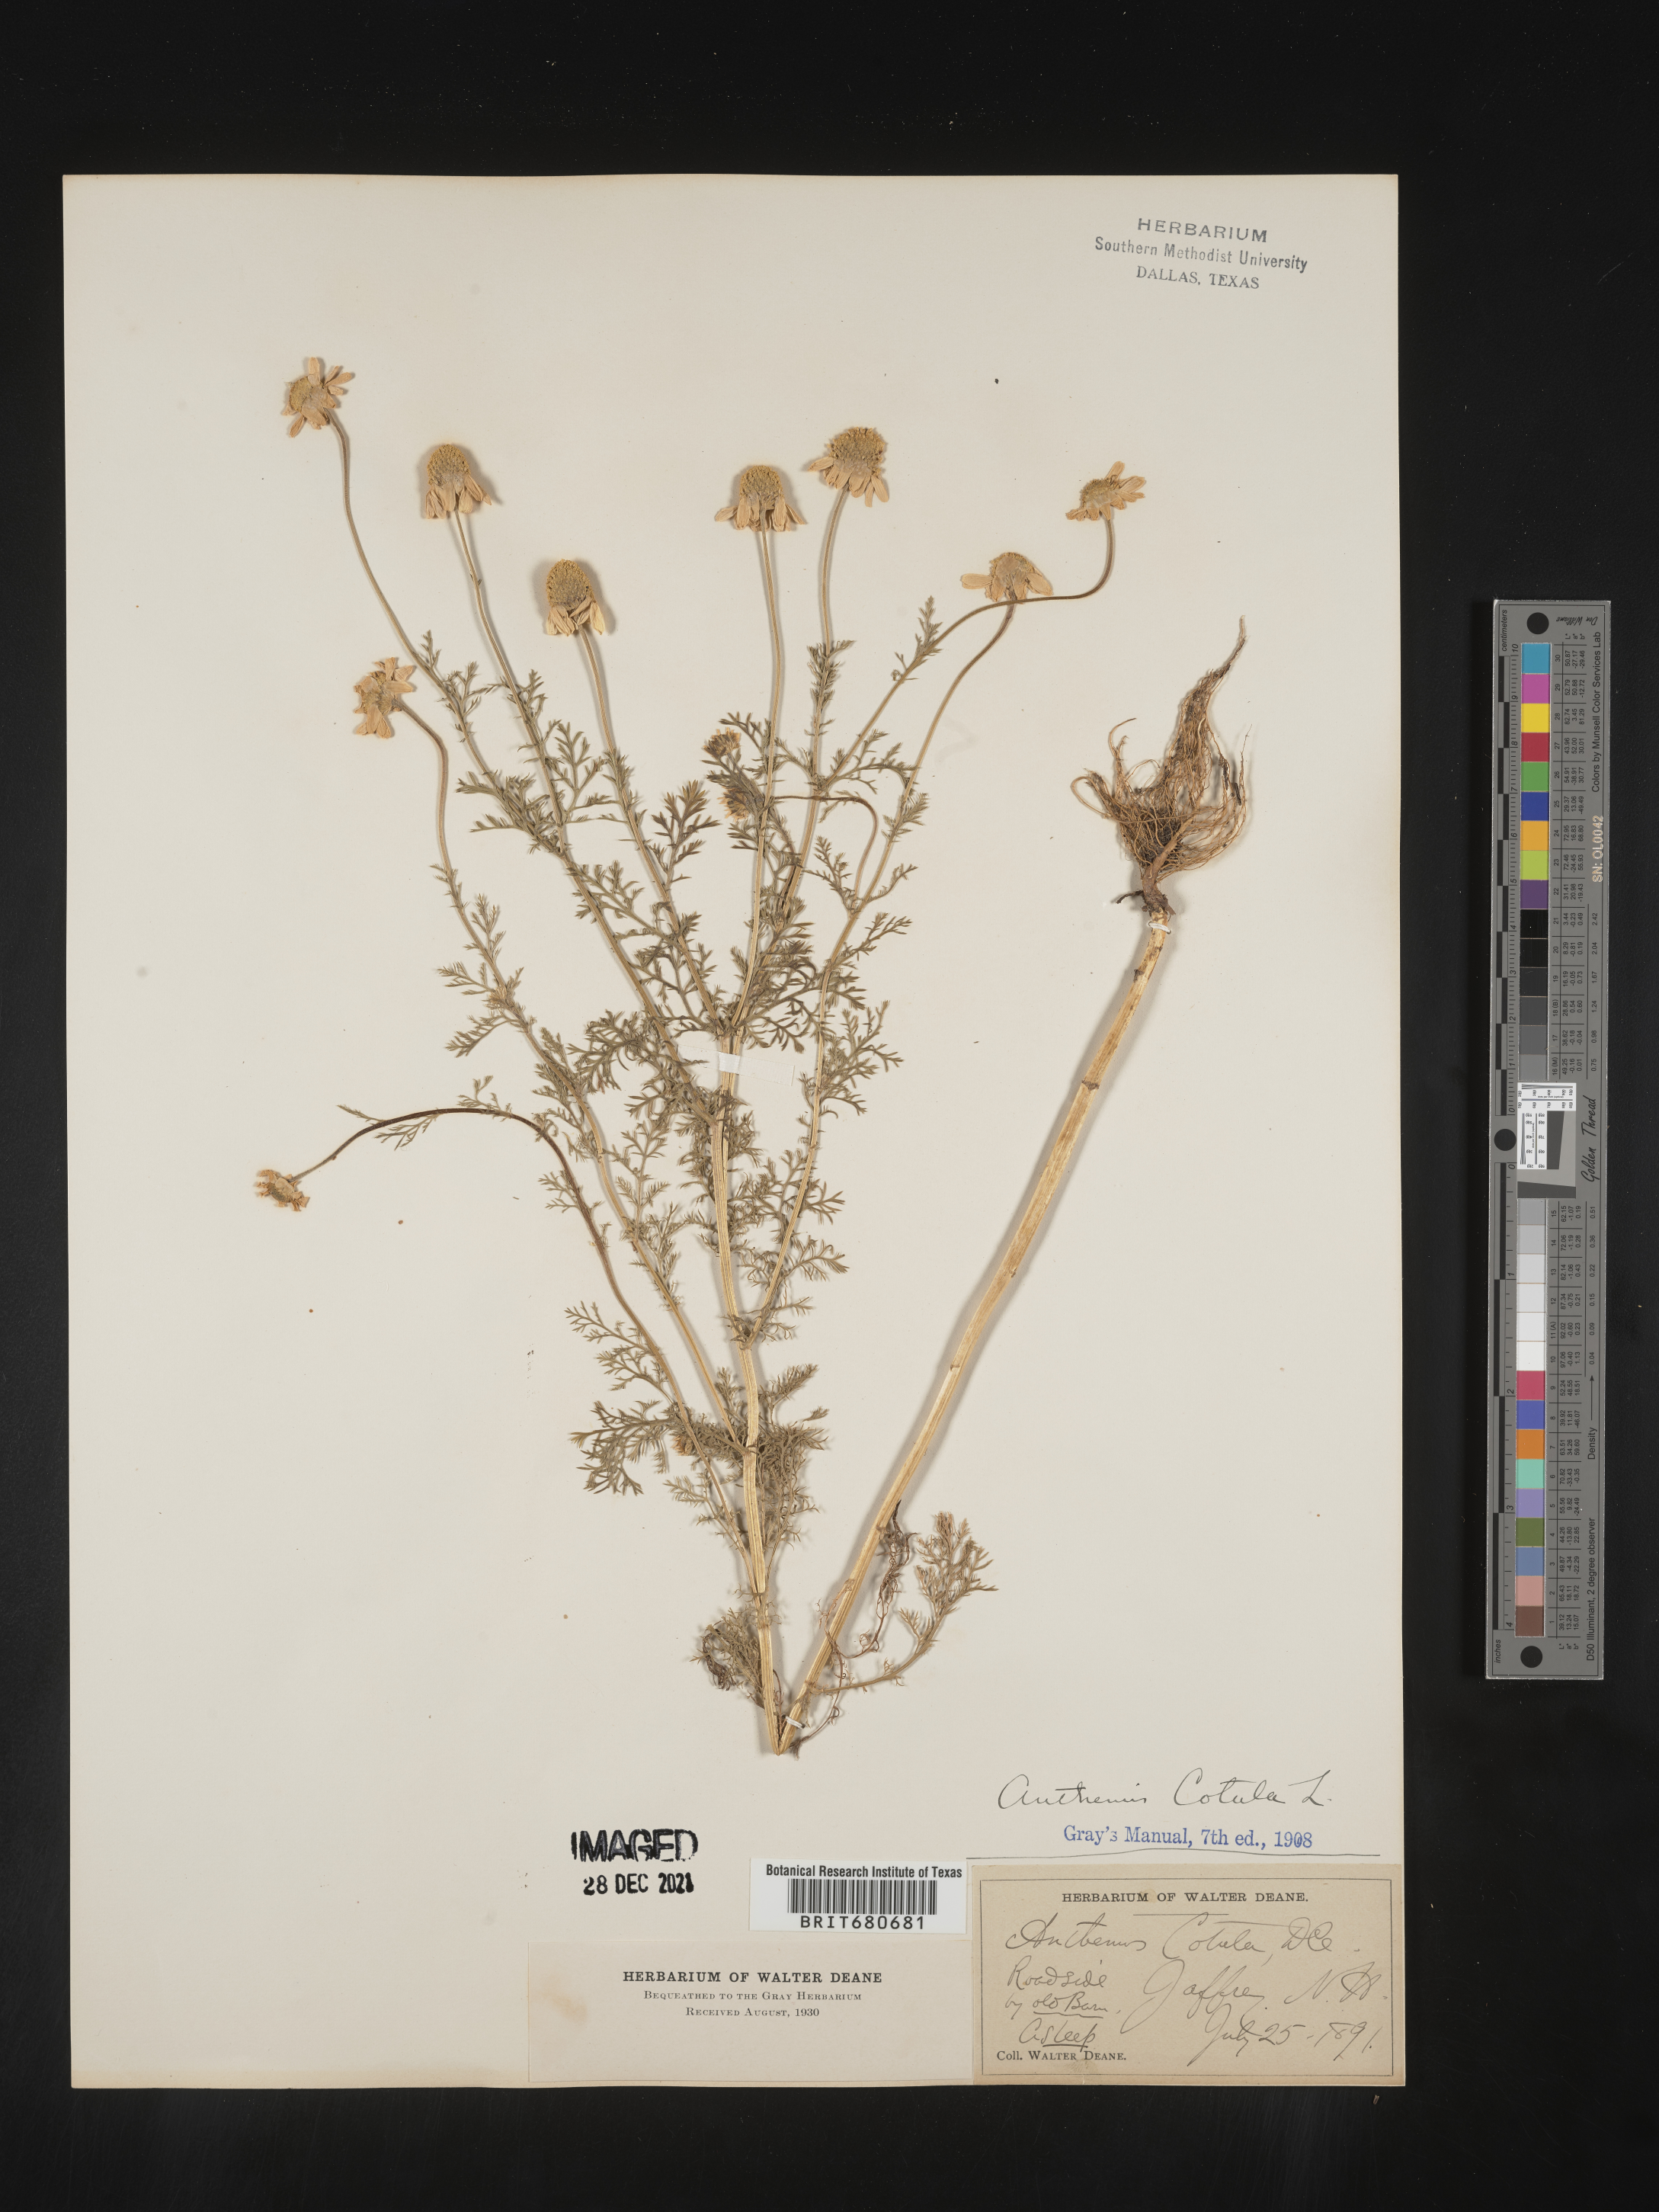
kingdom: Plantae
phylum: Tracheophyta
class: Magnoliopsida
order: Asterales
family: Asteraceae
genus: Anthemis
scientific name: Anthemis cotula
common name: Stinking chamomile
